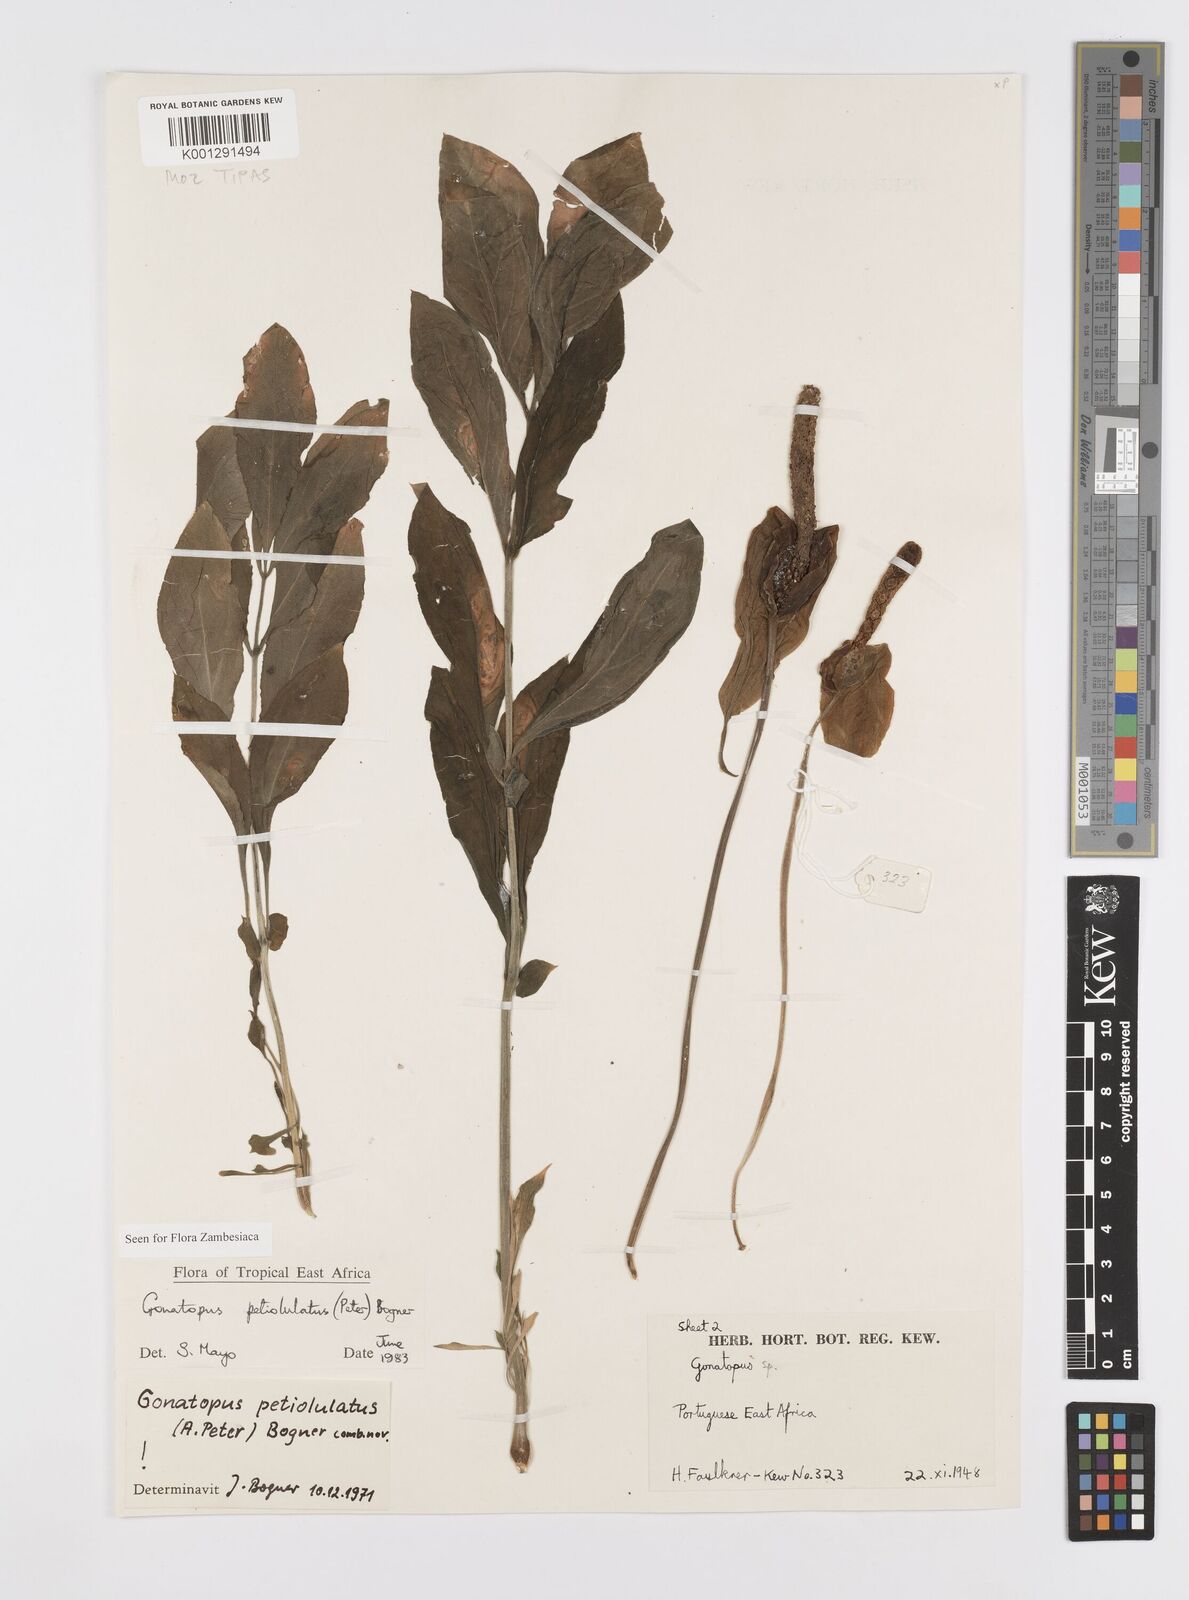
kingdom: Plantae
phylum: Tracheophyta
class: Liliopsida
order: Alismatales
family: Araceae
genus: Gonatopus
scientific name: Gonatopus petiolulatus
